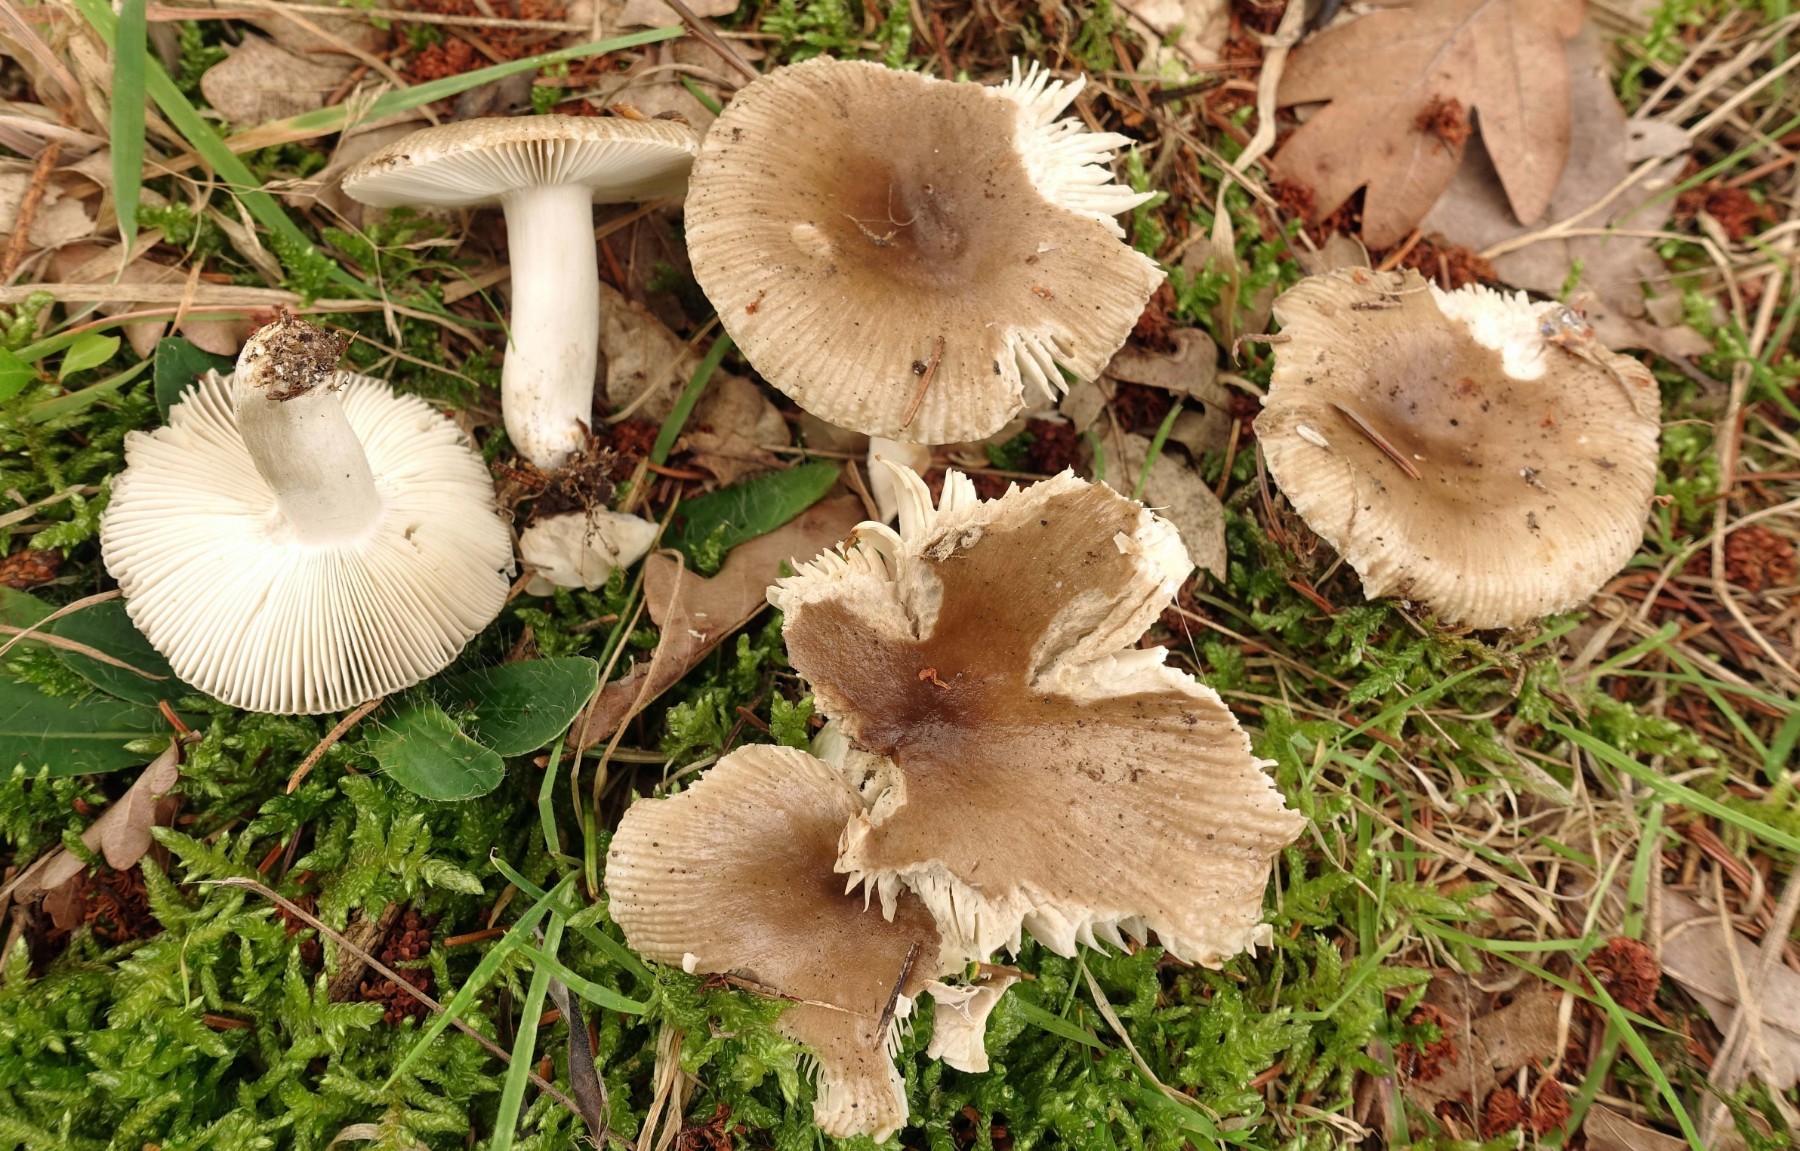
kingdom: Fungi
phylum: Basidiomycota
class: Agaricomycetes
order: Russulales
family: Russulaceae
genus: Russula
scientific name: Russula amoenolens
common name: skarp kam-skørhat
